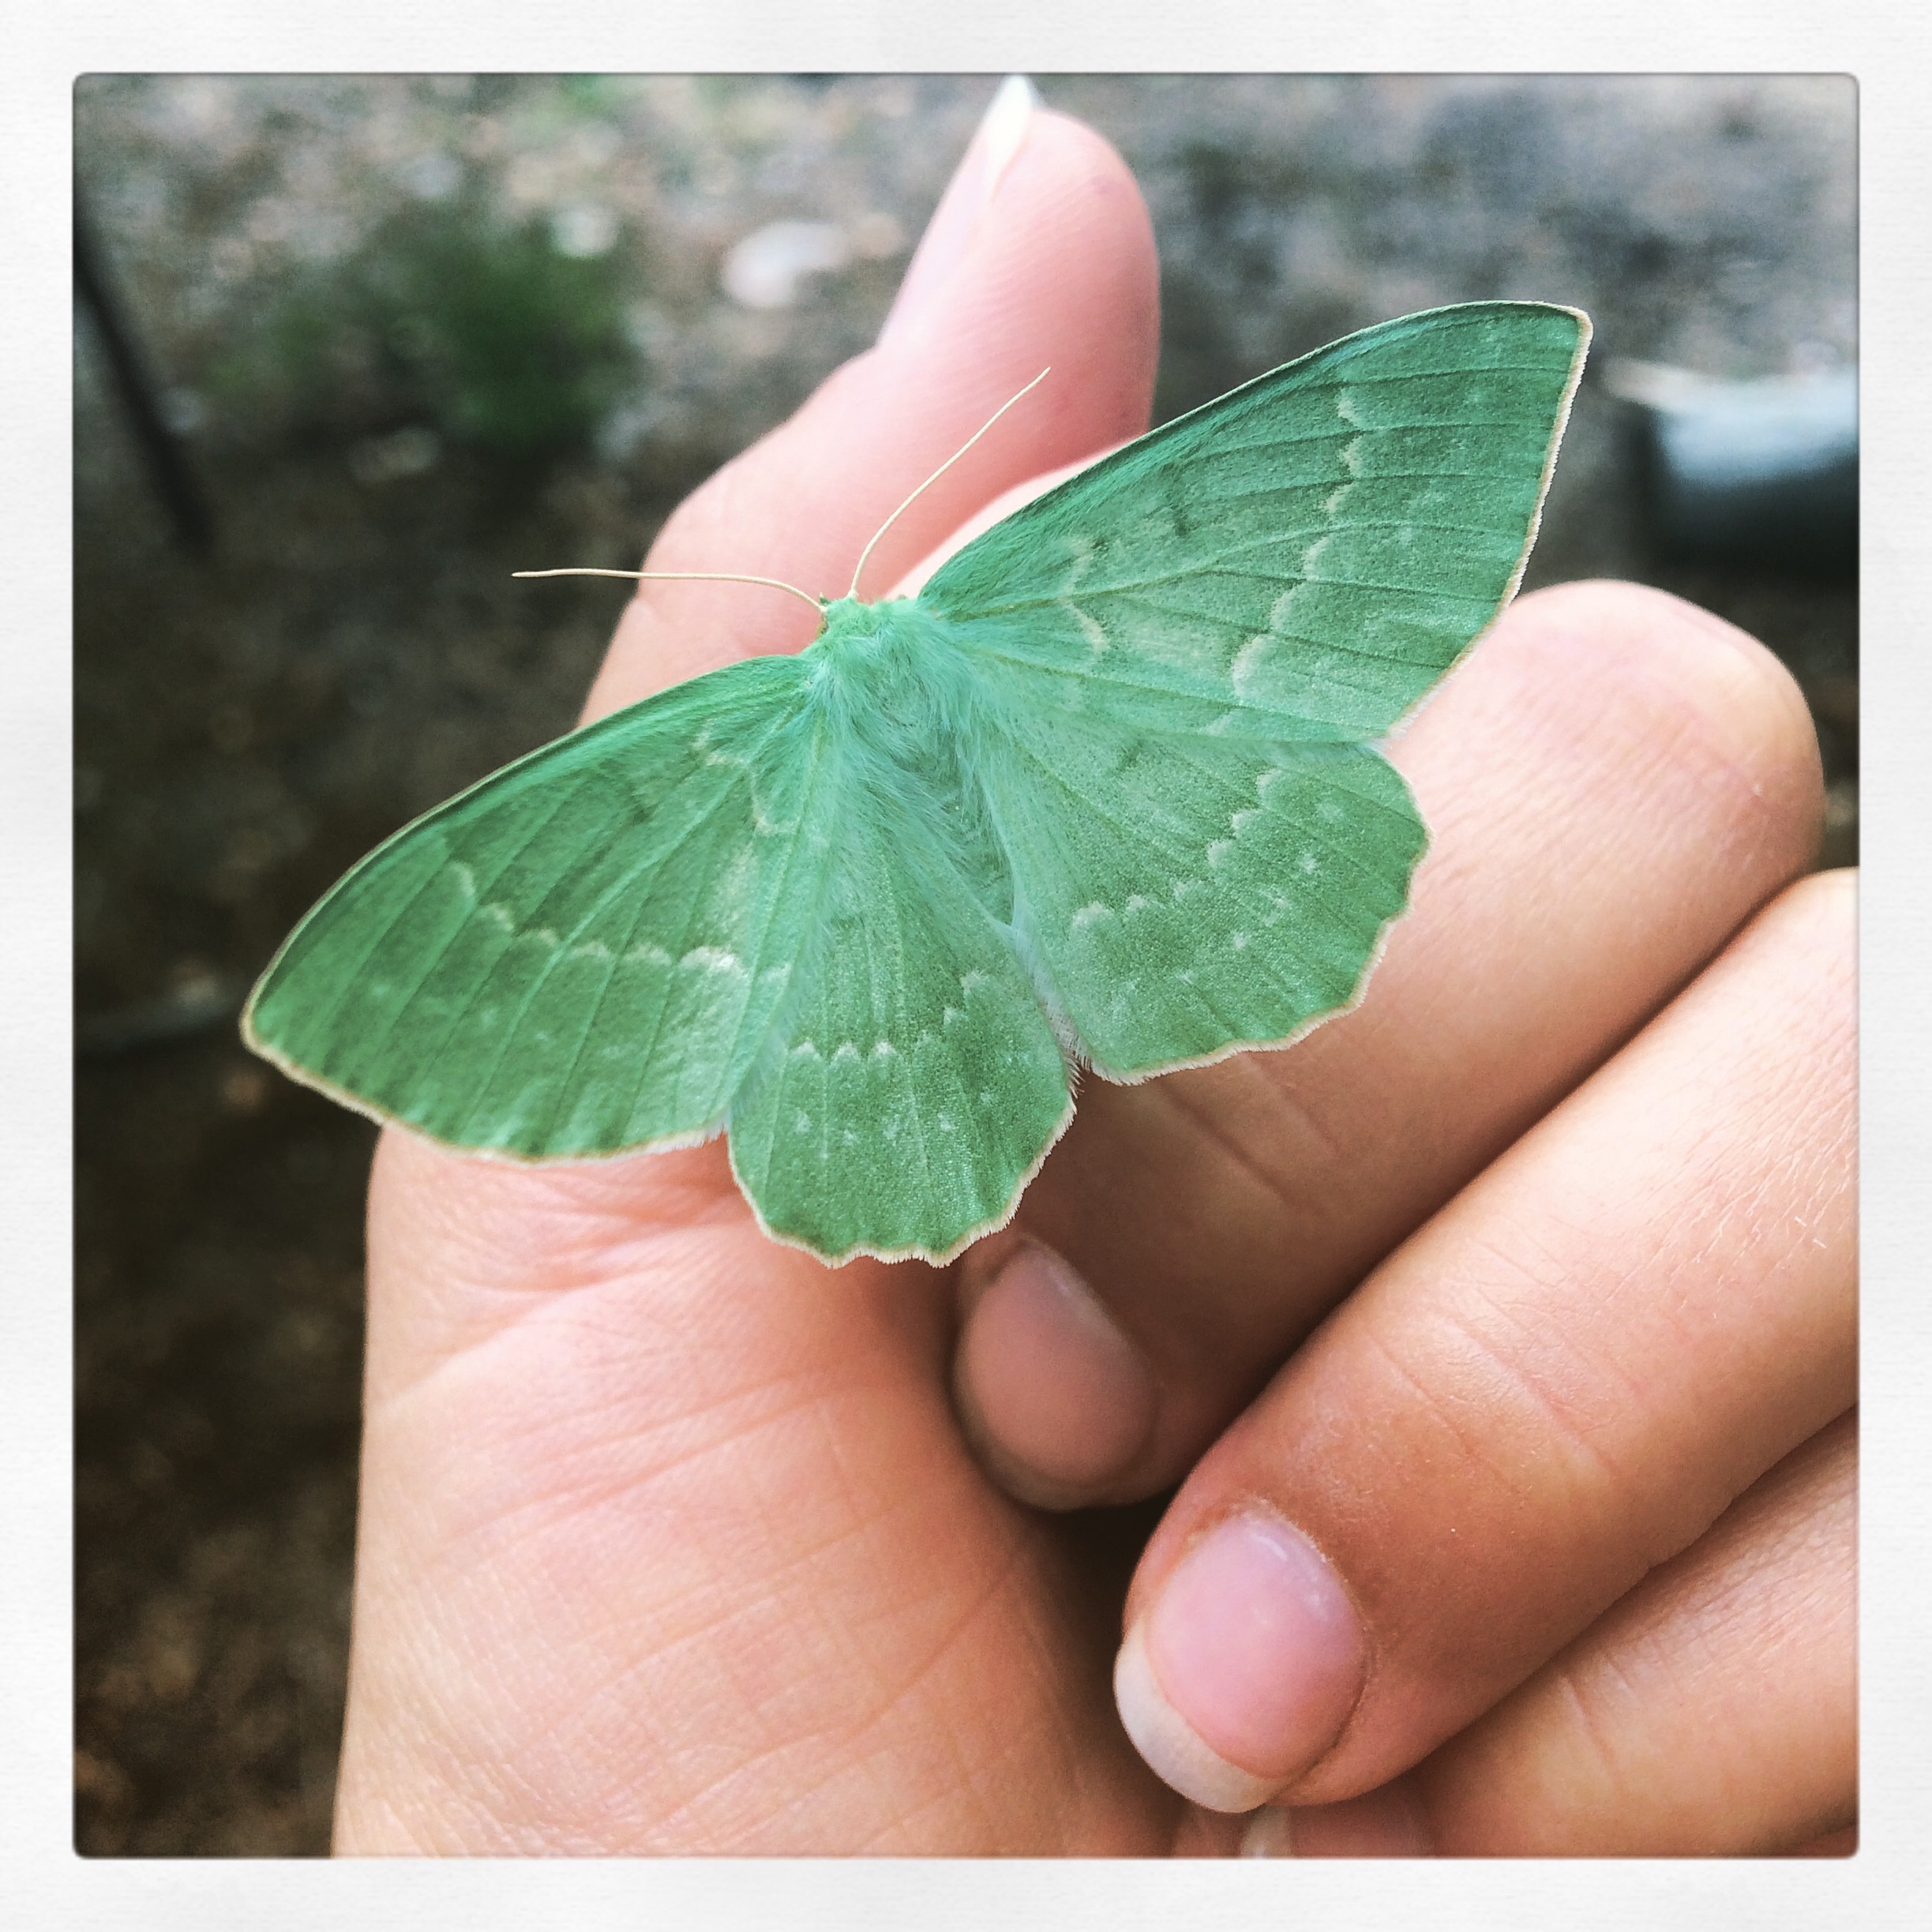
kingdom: Animalia
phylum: Arthropoda
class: Insecta
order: Lepidoptera
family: Geometridae
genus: Geometra
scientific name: Geometra papilionaria
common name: Large emerald
